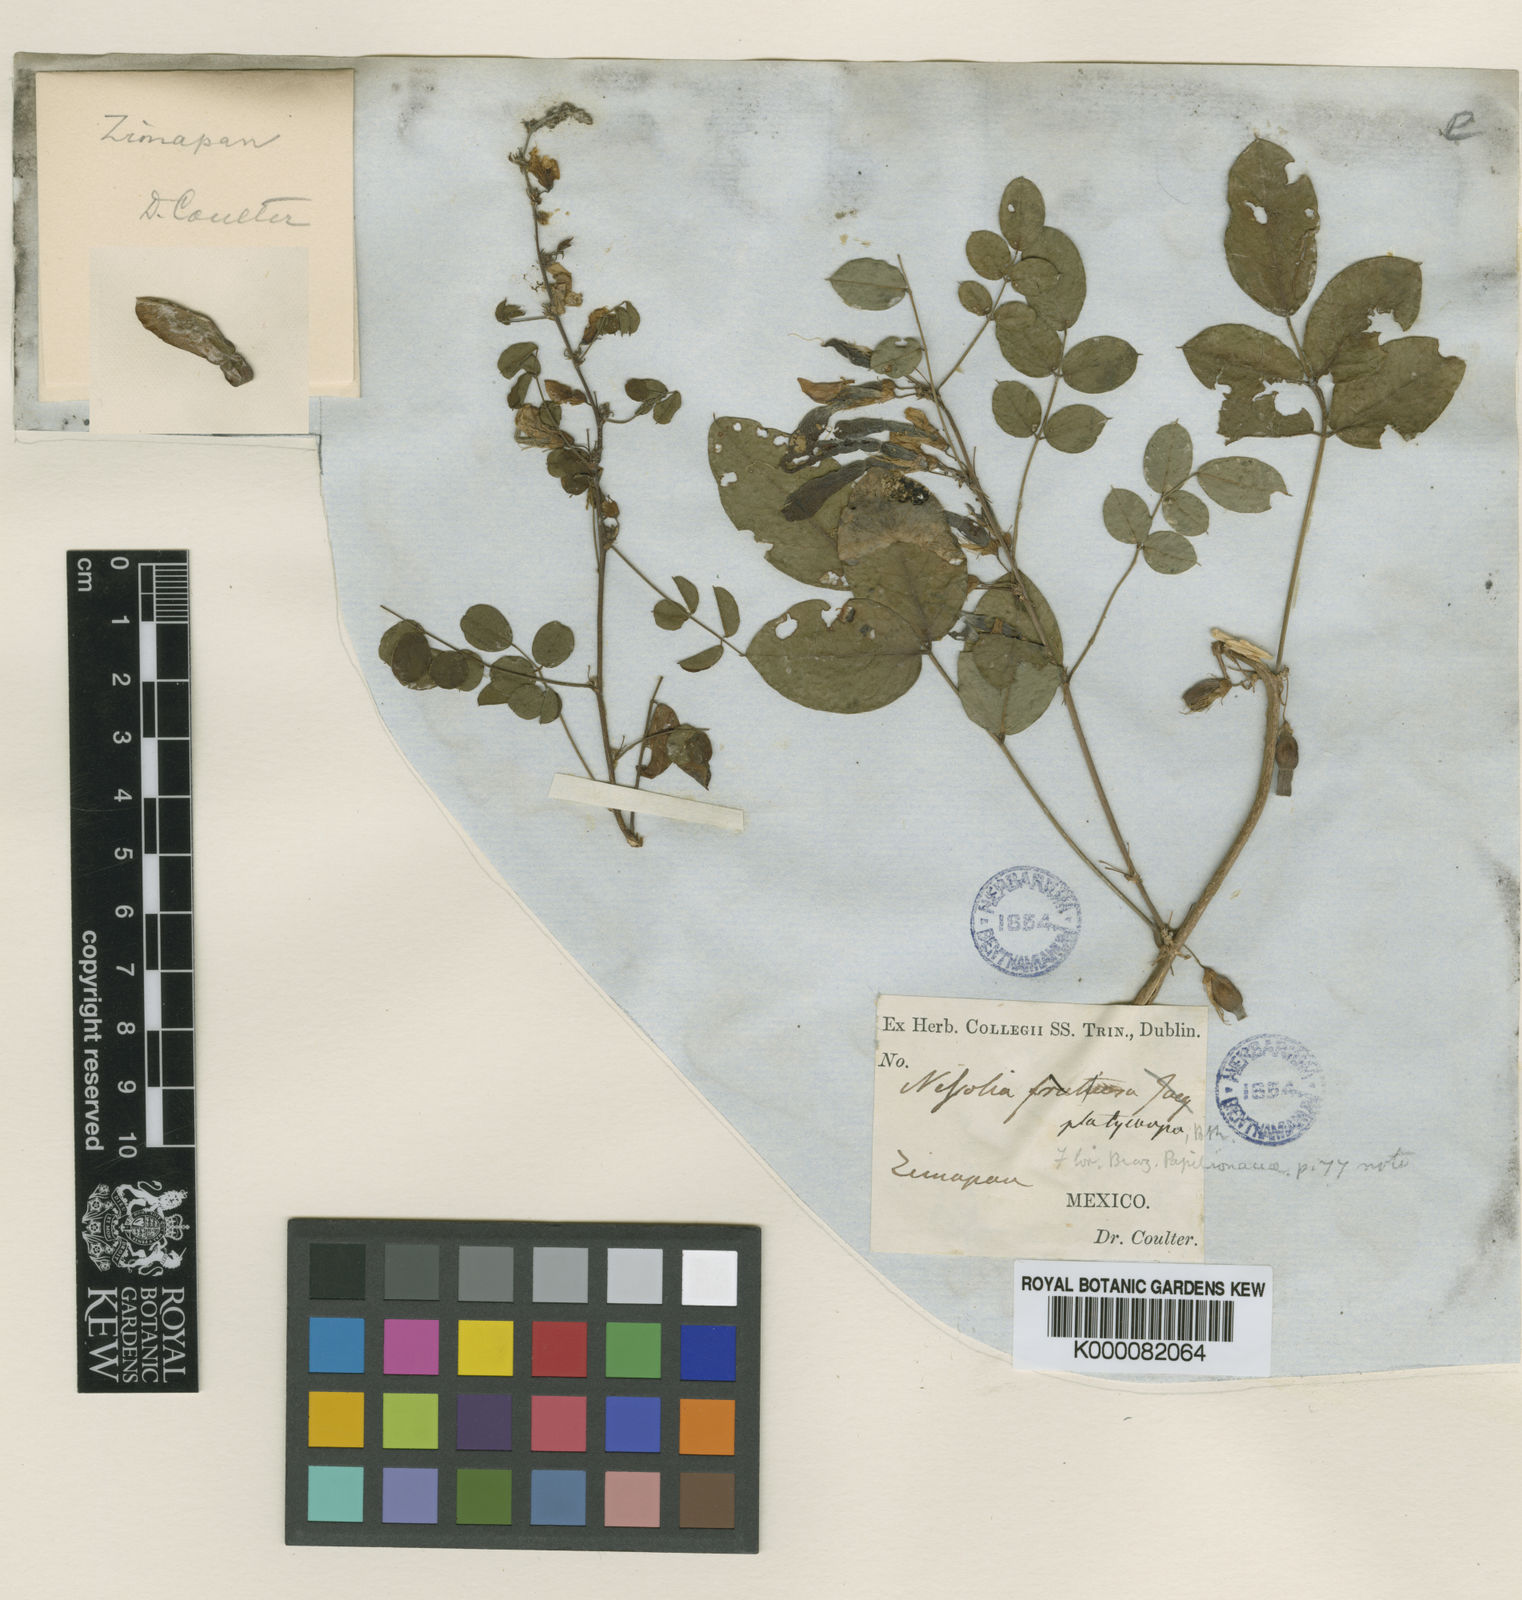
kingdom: Plantae
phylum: Tracheophyta
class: Magnoliopsida
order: Fabales
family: Fabaceae
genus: Nissolia
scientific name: Nissolia platycarpa
